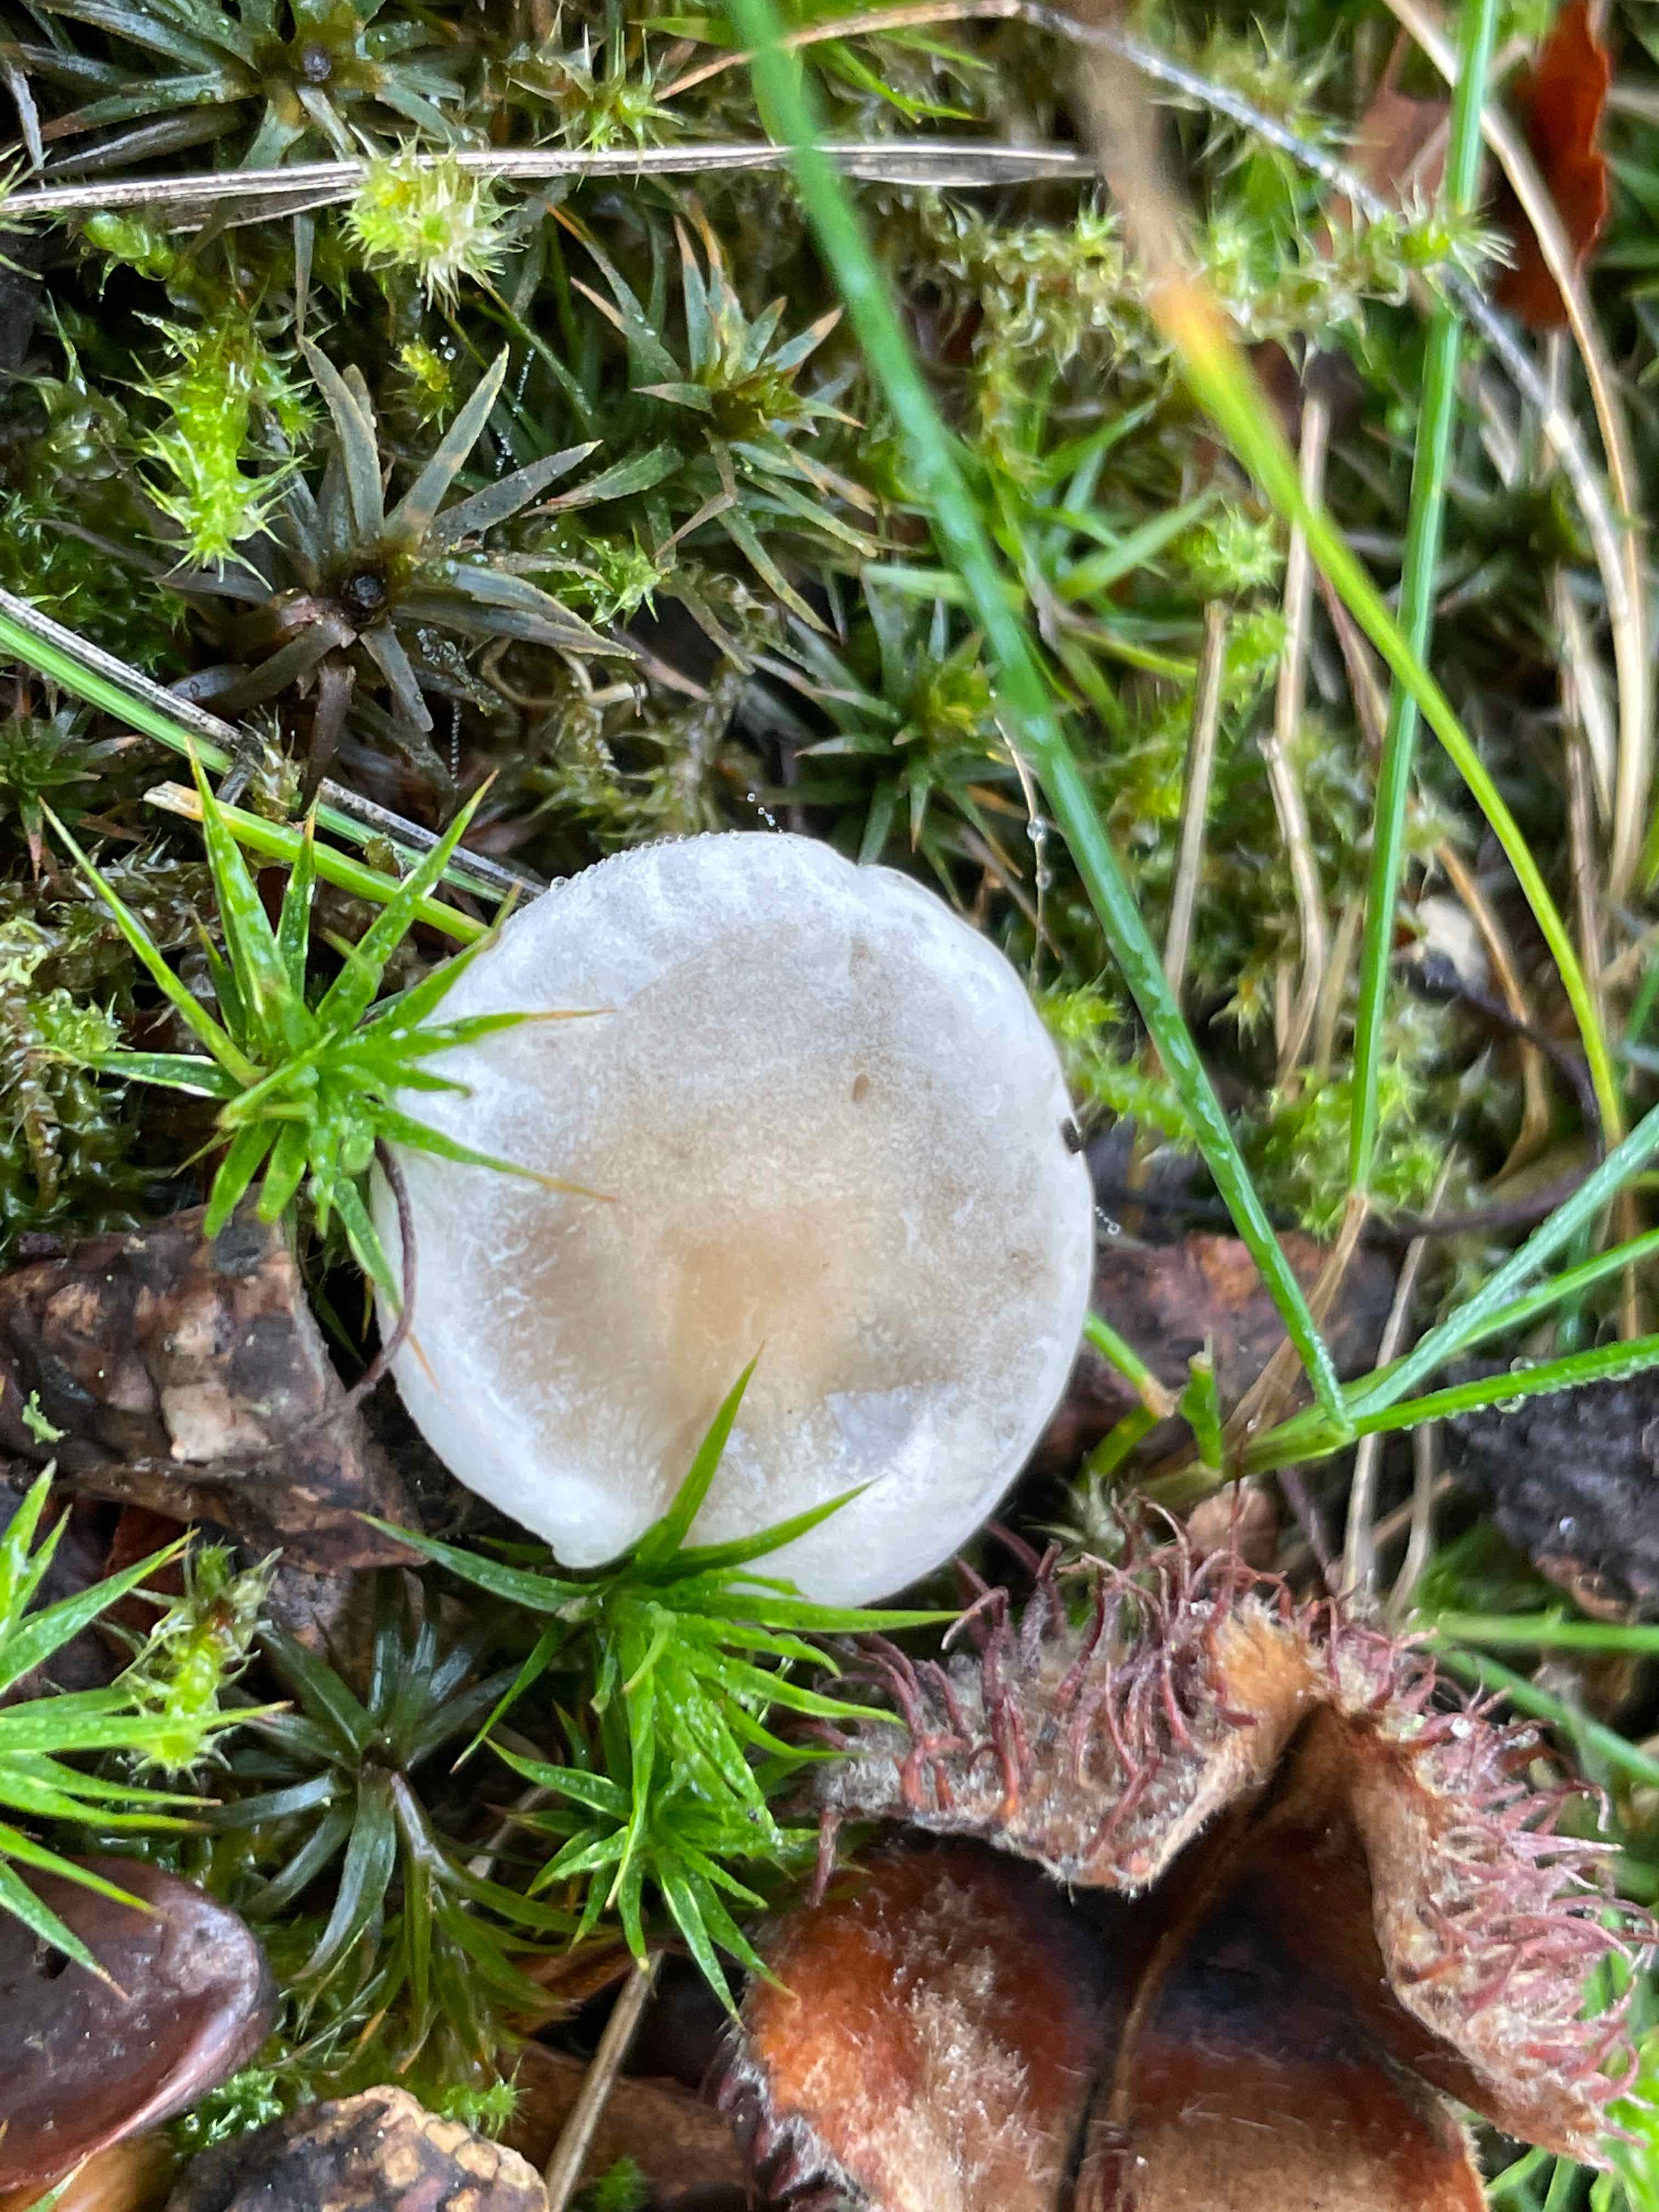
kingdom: Fungi
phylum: Basidiomycota
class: Agaricomycetes
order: Agaricales
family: Entolomataceae
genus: Clitopilus
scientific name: Clitopilus prunulus
